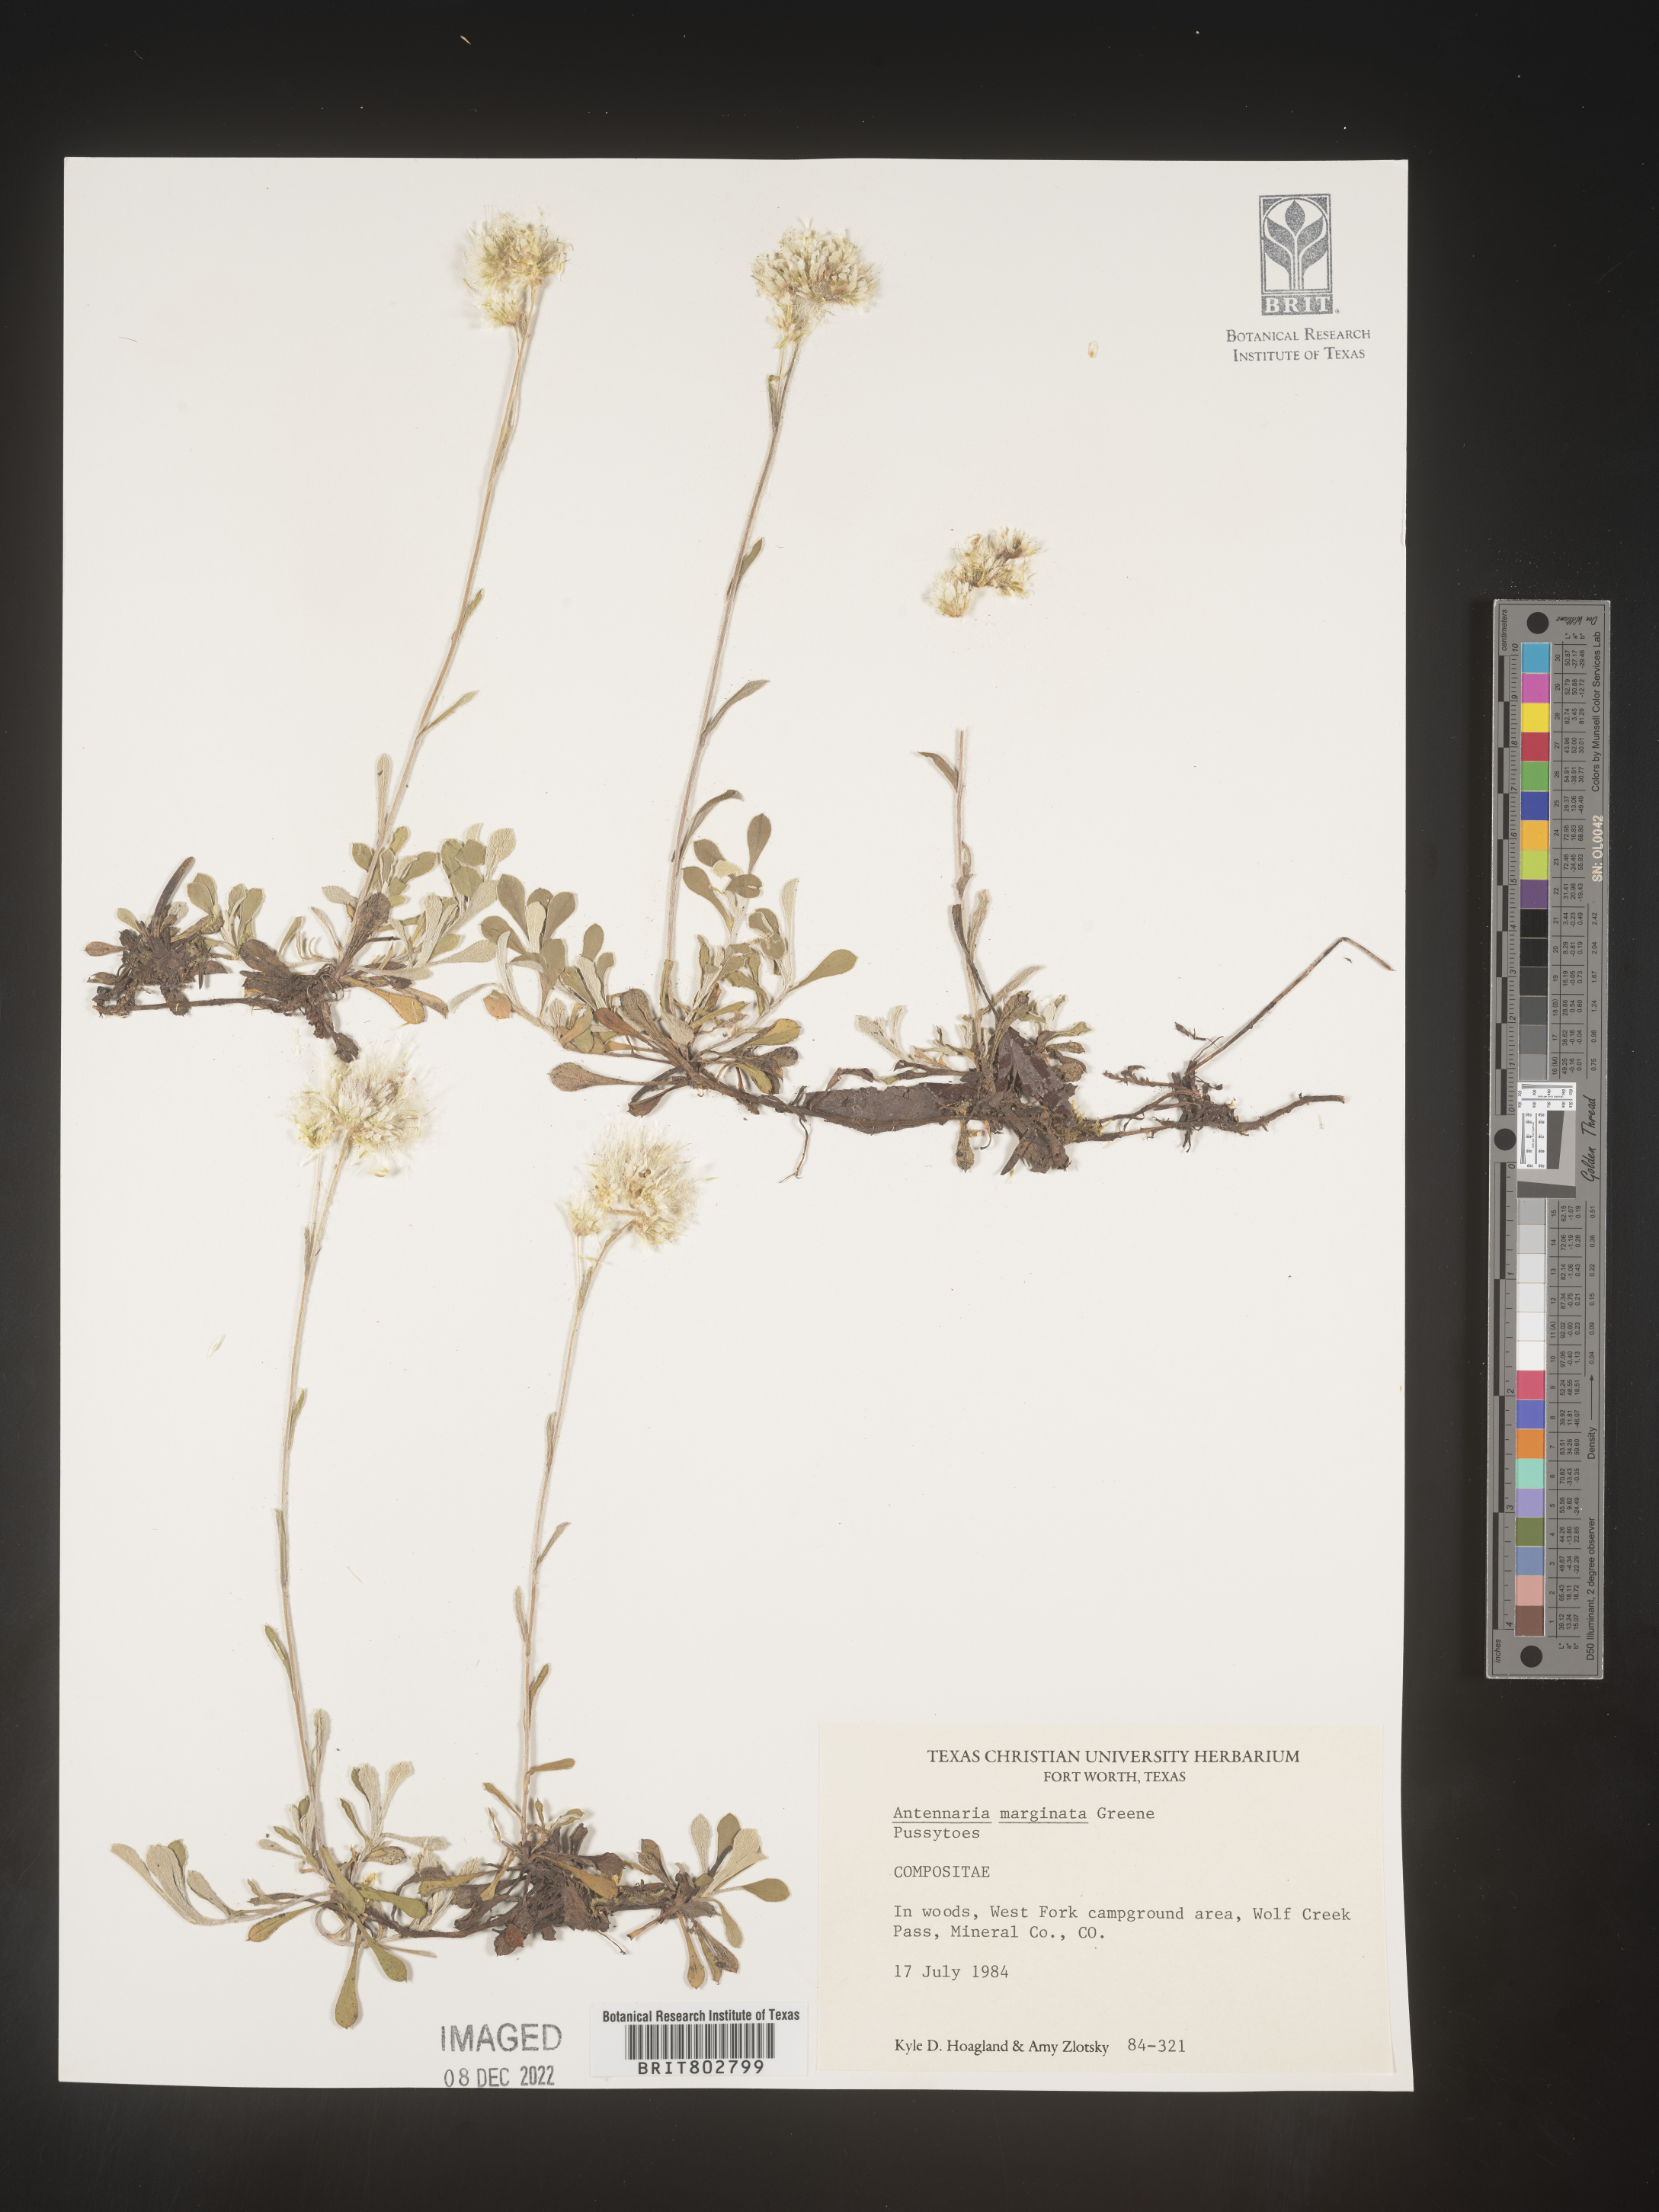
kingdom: Plantae
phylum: Tracheophyta
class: Magnoliopsida
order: Asterales
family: Asteraceae
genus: Antennaria
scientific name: Antennaria marginata
